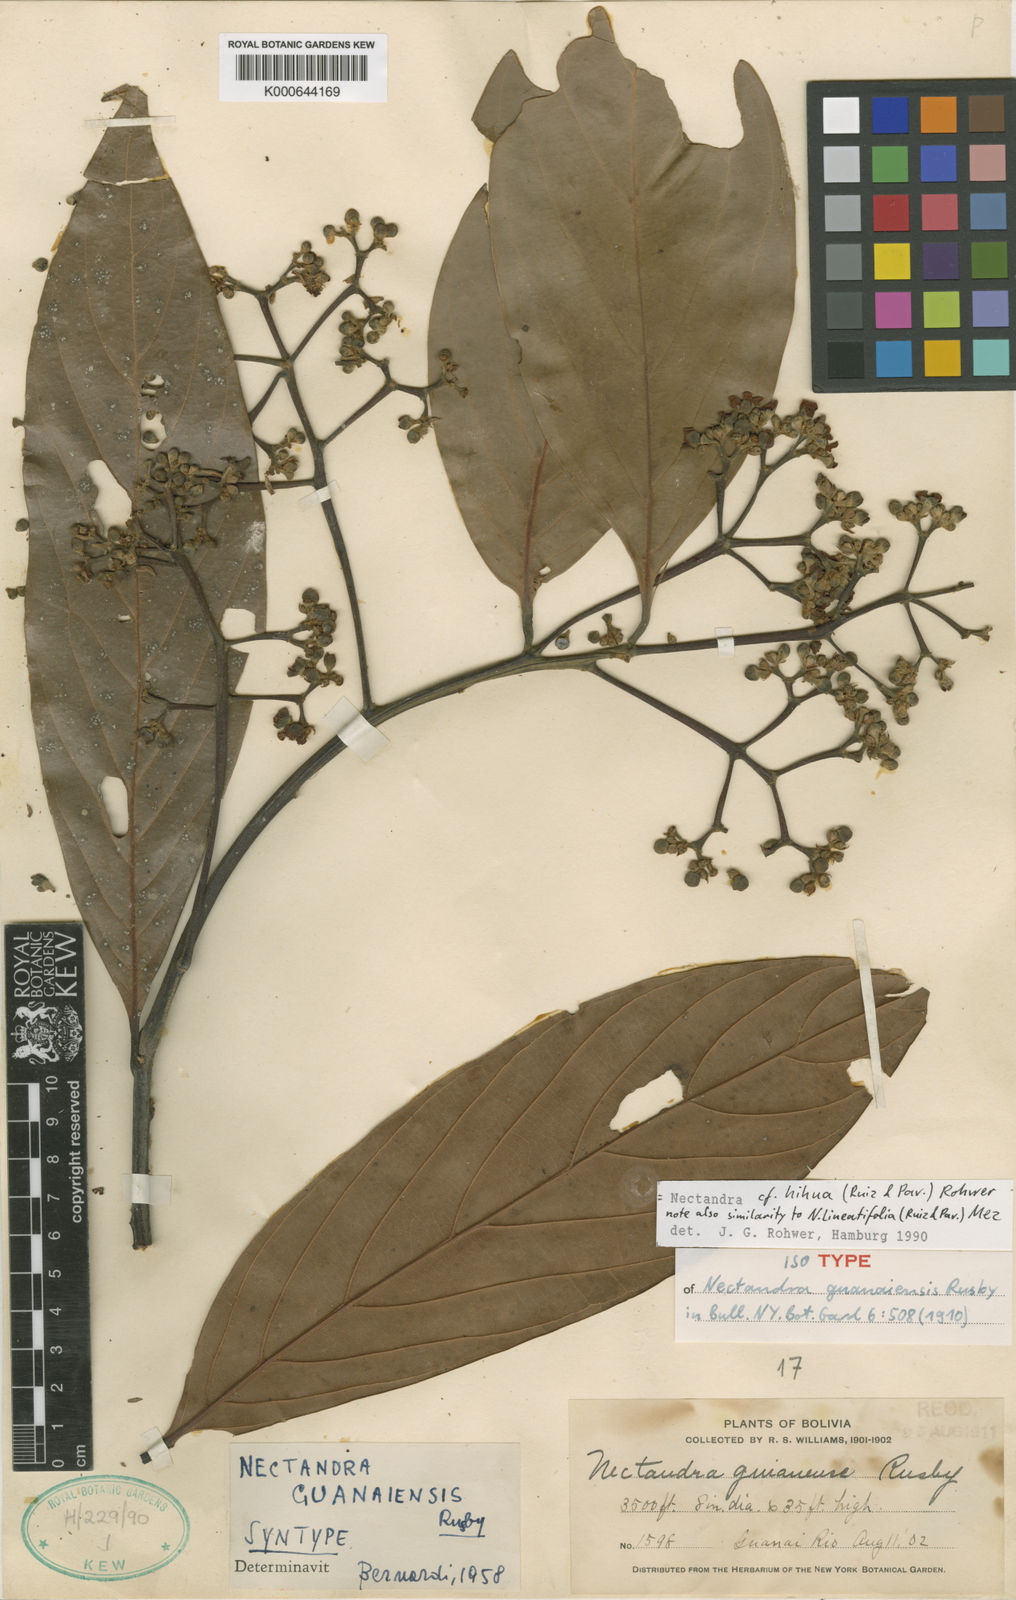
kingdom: Plantae
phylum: Tracheophyta
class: Magnoliopsida
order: Laurales
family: Lauraceae
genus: Nectandra
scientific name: Nectandra hihua
